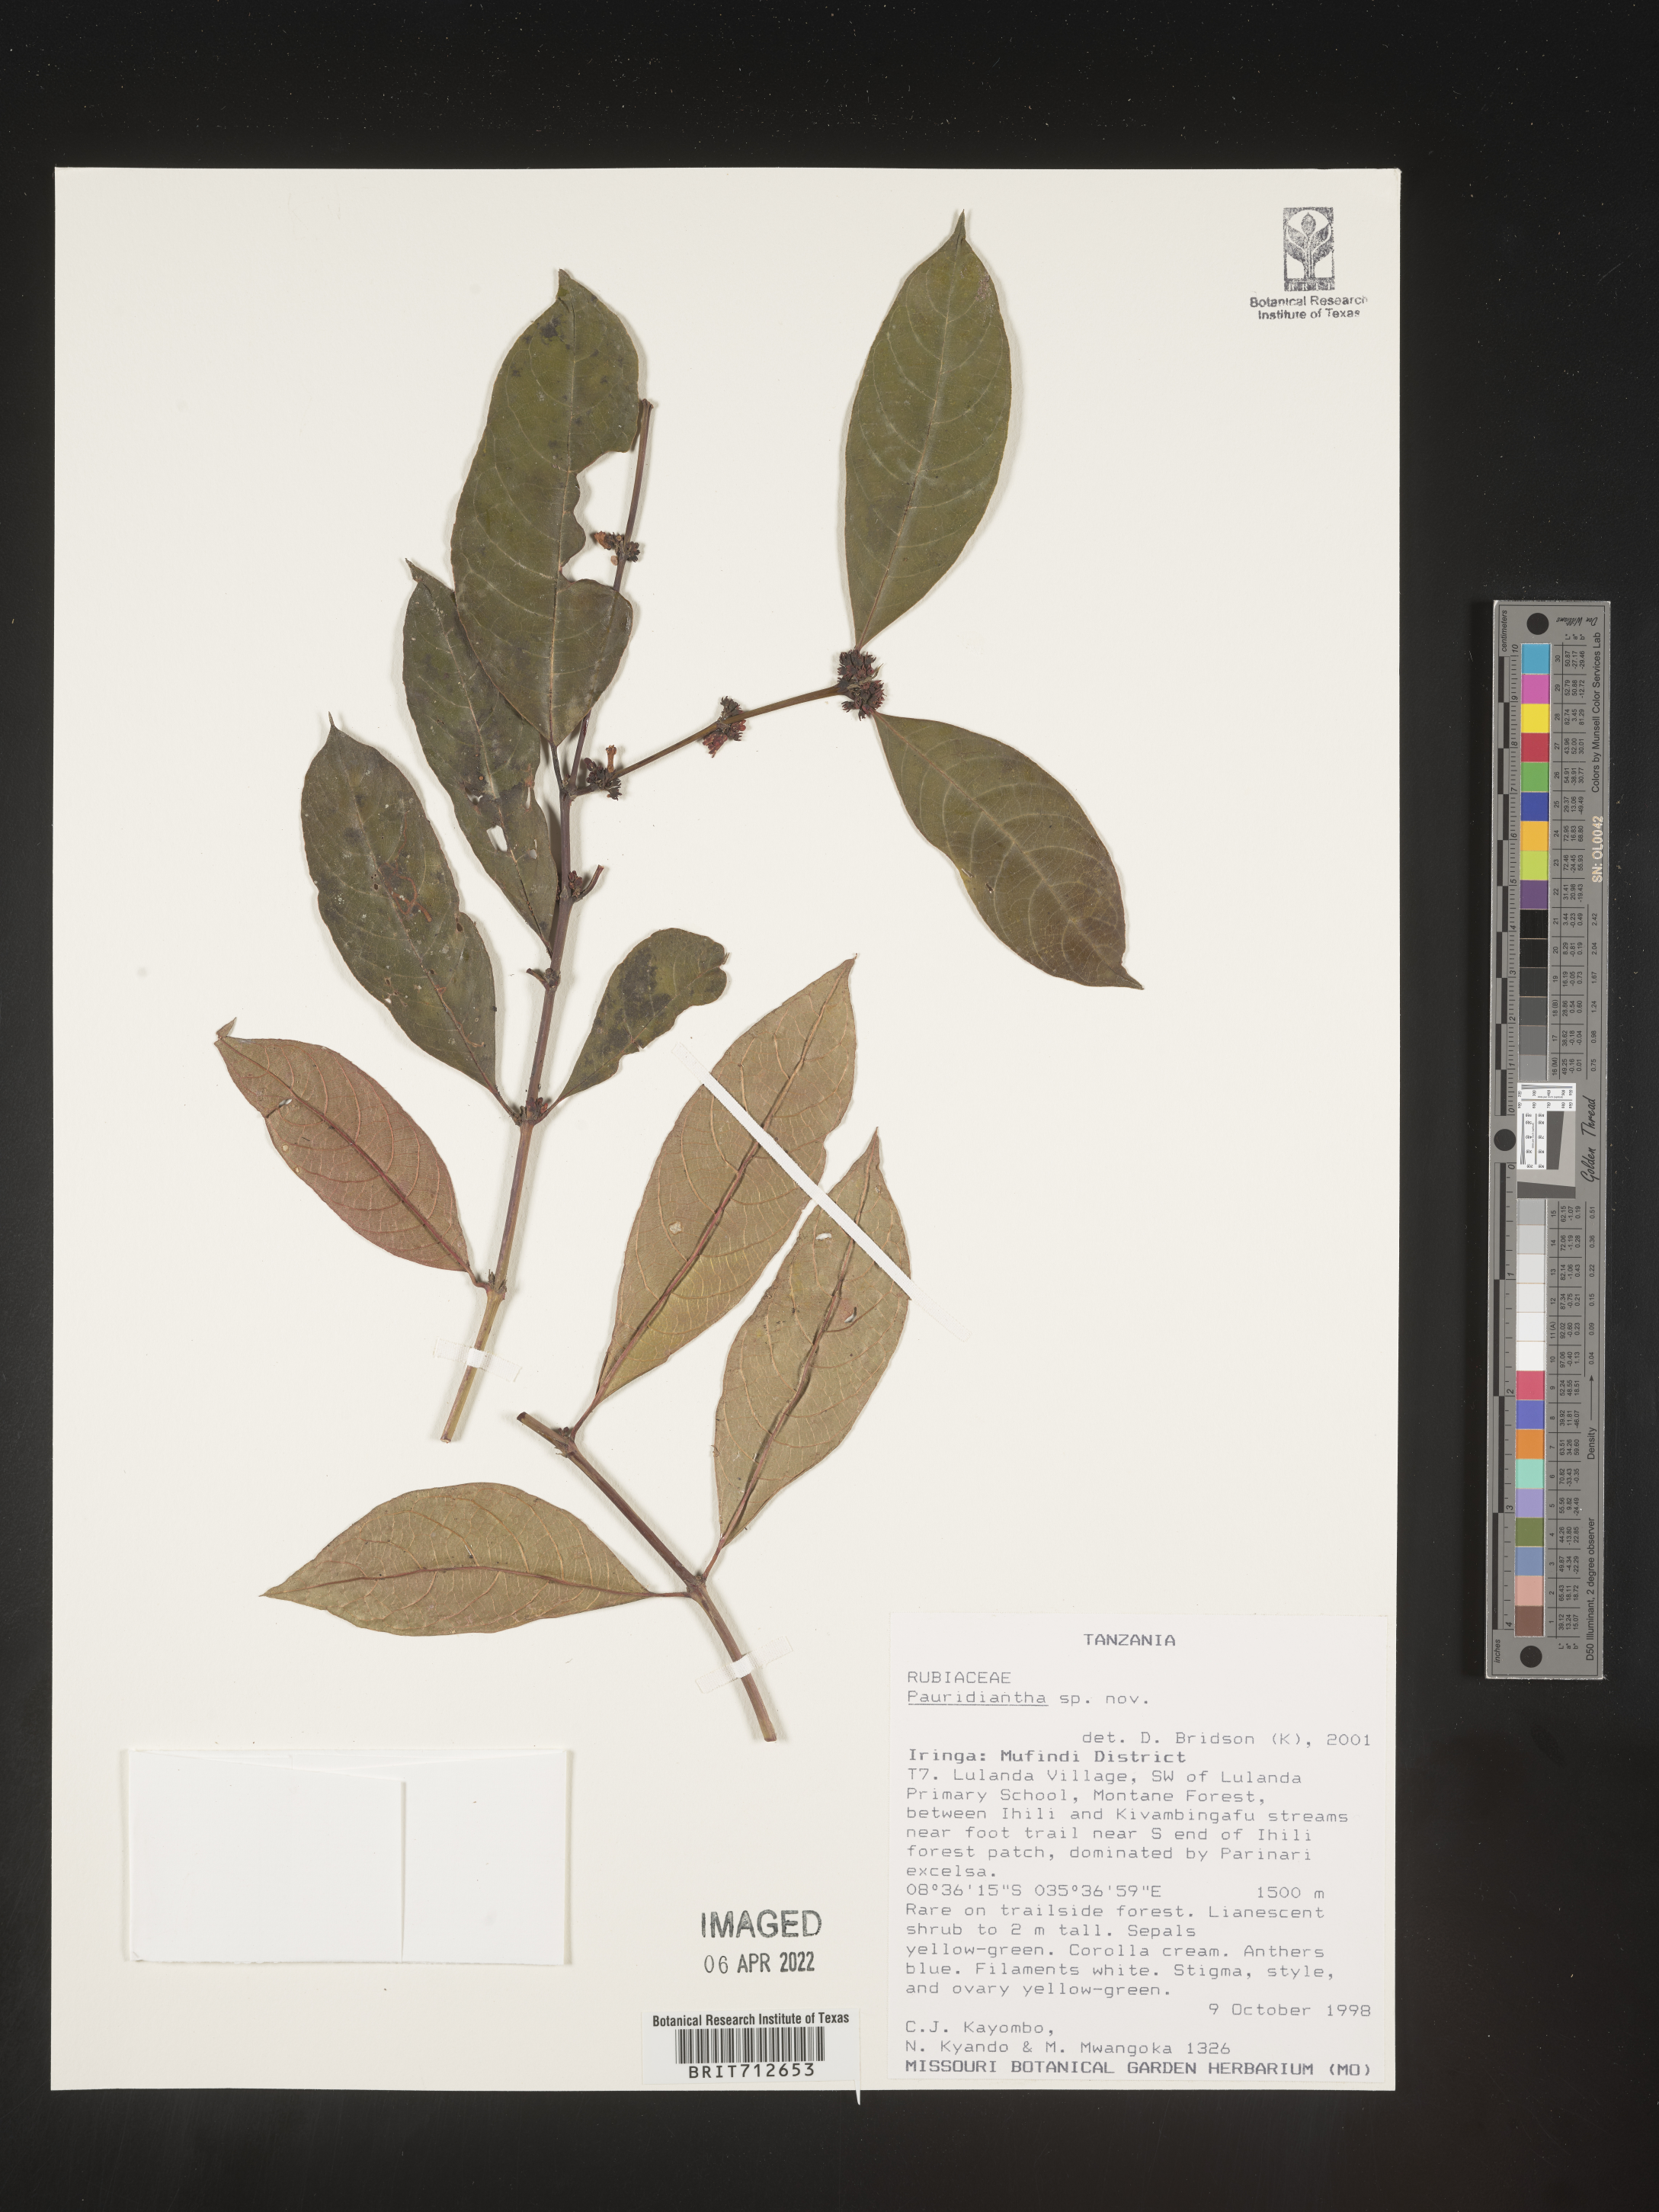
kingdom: Plantae
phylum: Tracheophyta
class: Magnoliopsida
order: Gentianales
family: Rubiaceae
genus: Pauridiantha
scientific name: Pauridiantha
